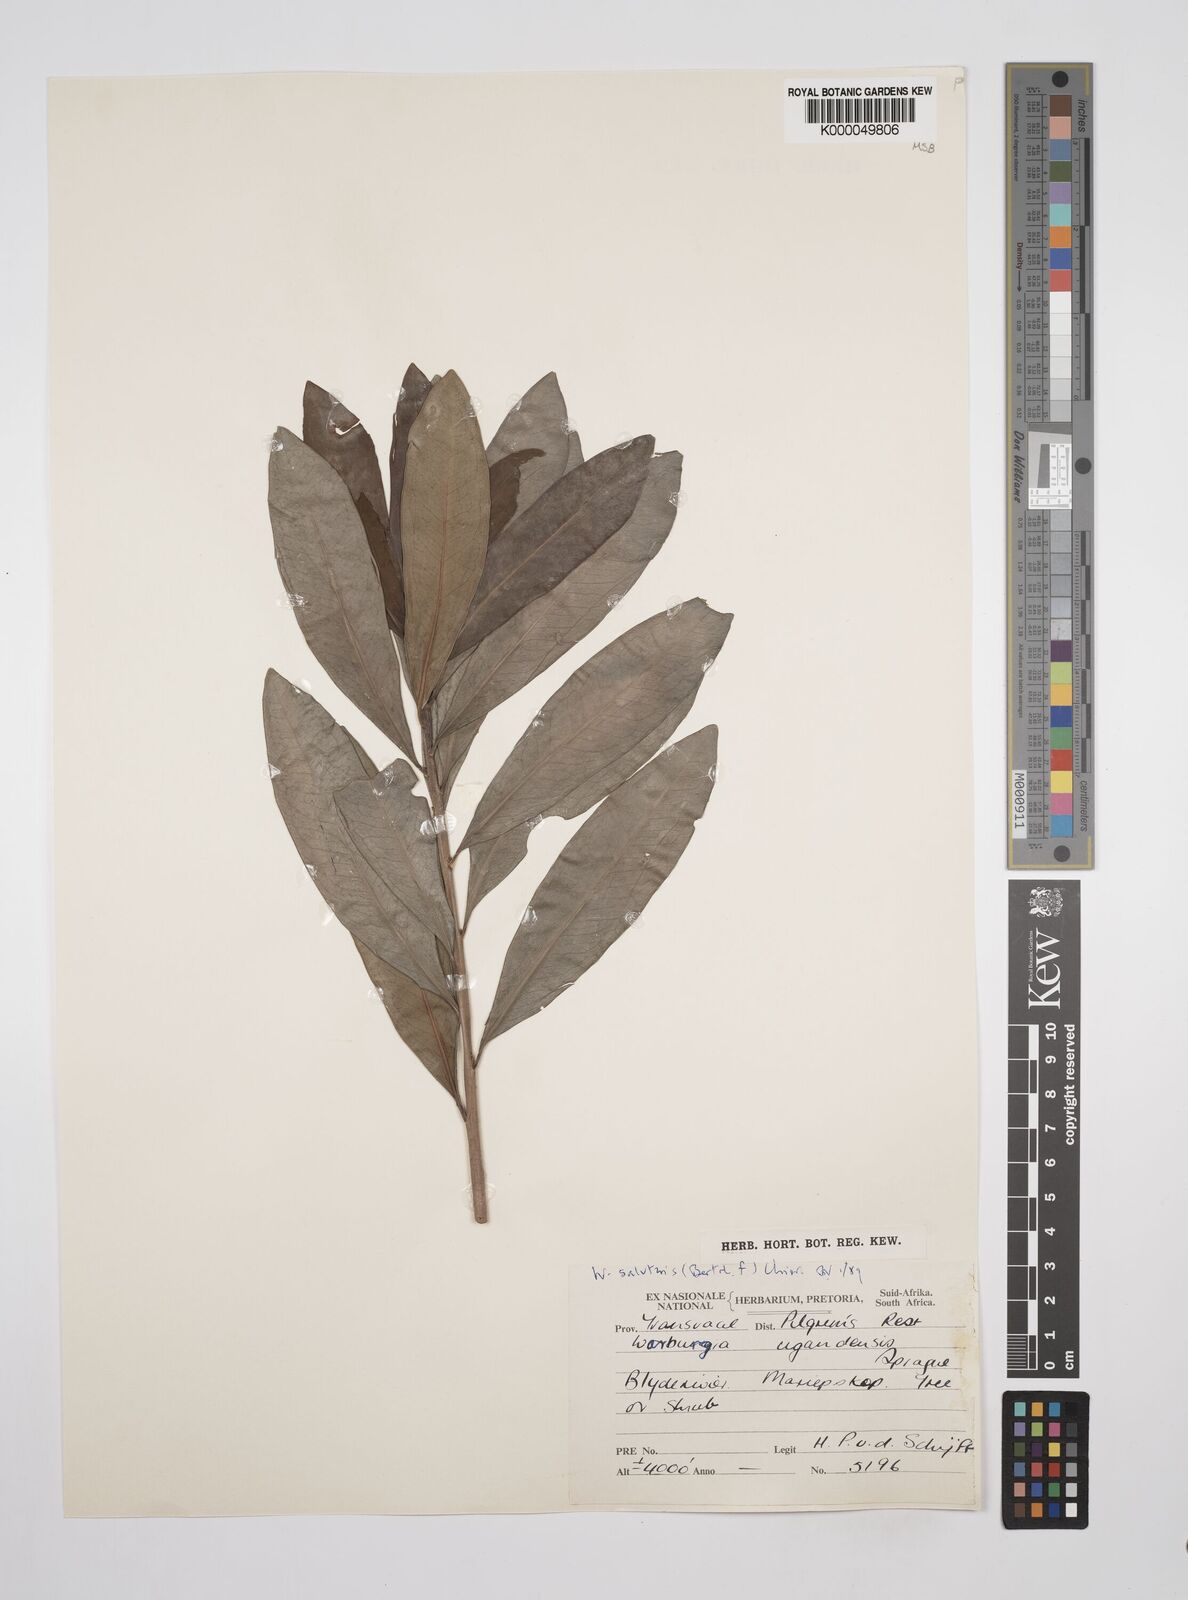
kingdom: Plantae
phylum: Tracheophyta
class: Magnoliopsida
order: Canellales
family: Canellaceae
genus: Warburgia
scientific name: Warburgia salutaris
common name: Pepper bark tree
